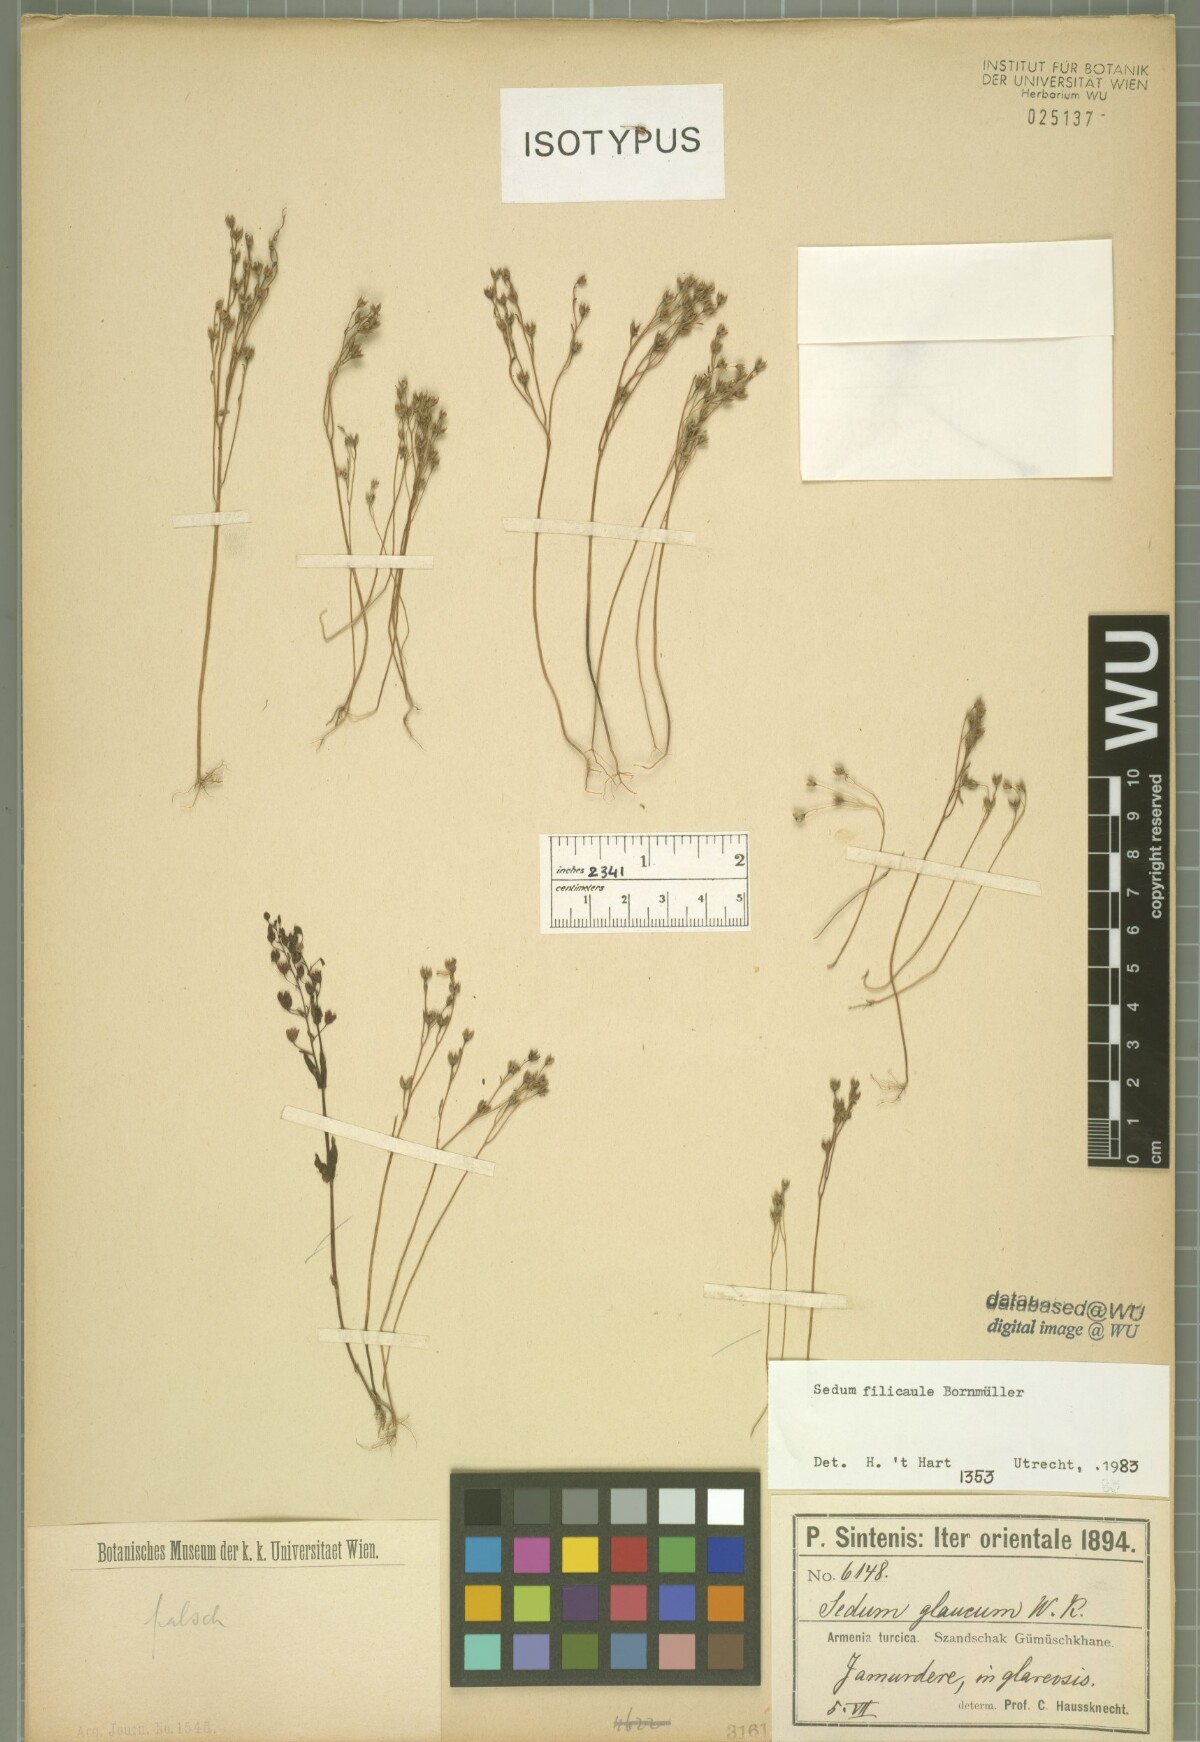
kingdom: Plantae
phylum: Tracheophyta
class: Magnoliopsida
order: Saxifragales
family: Crassulaceae
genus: Sedum
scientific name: Sedum pallidum
